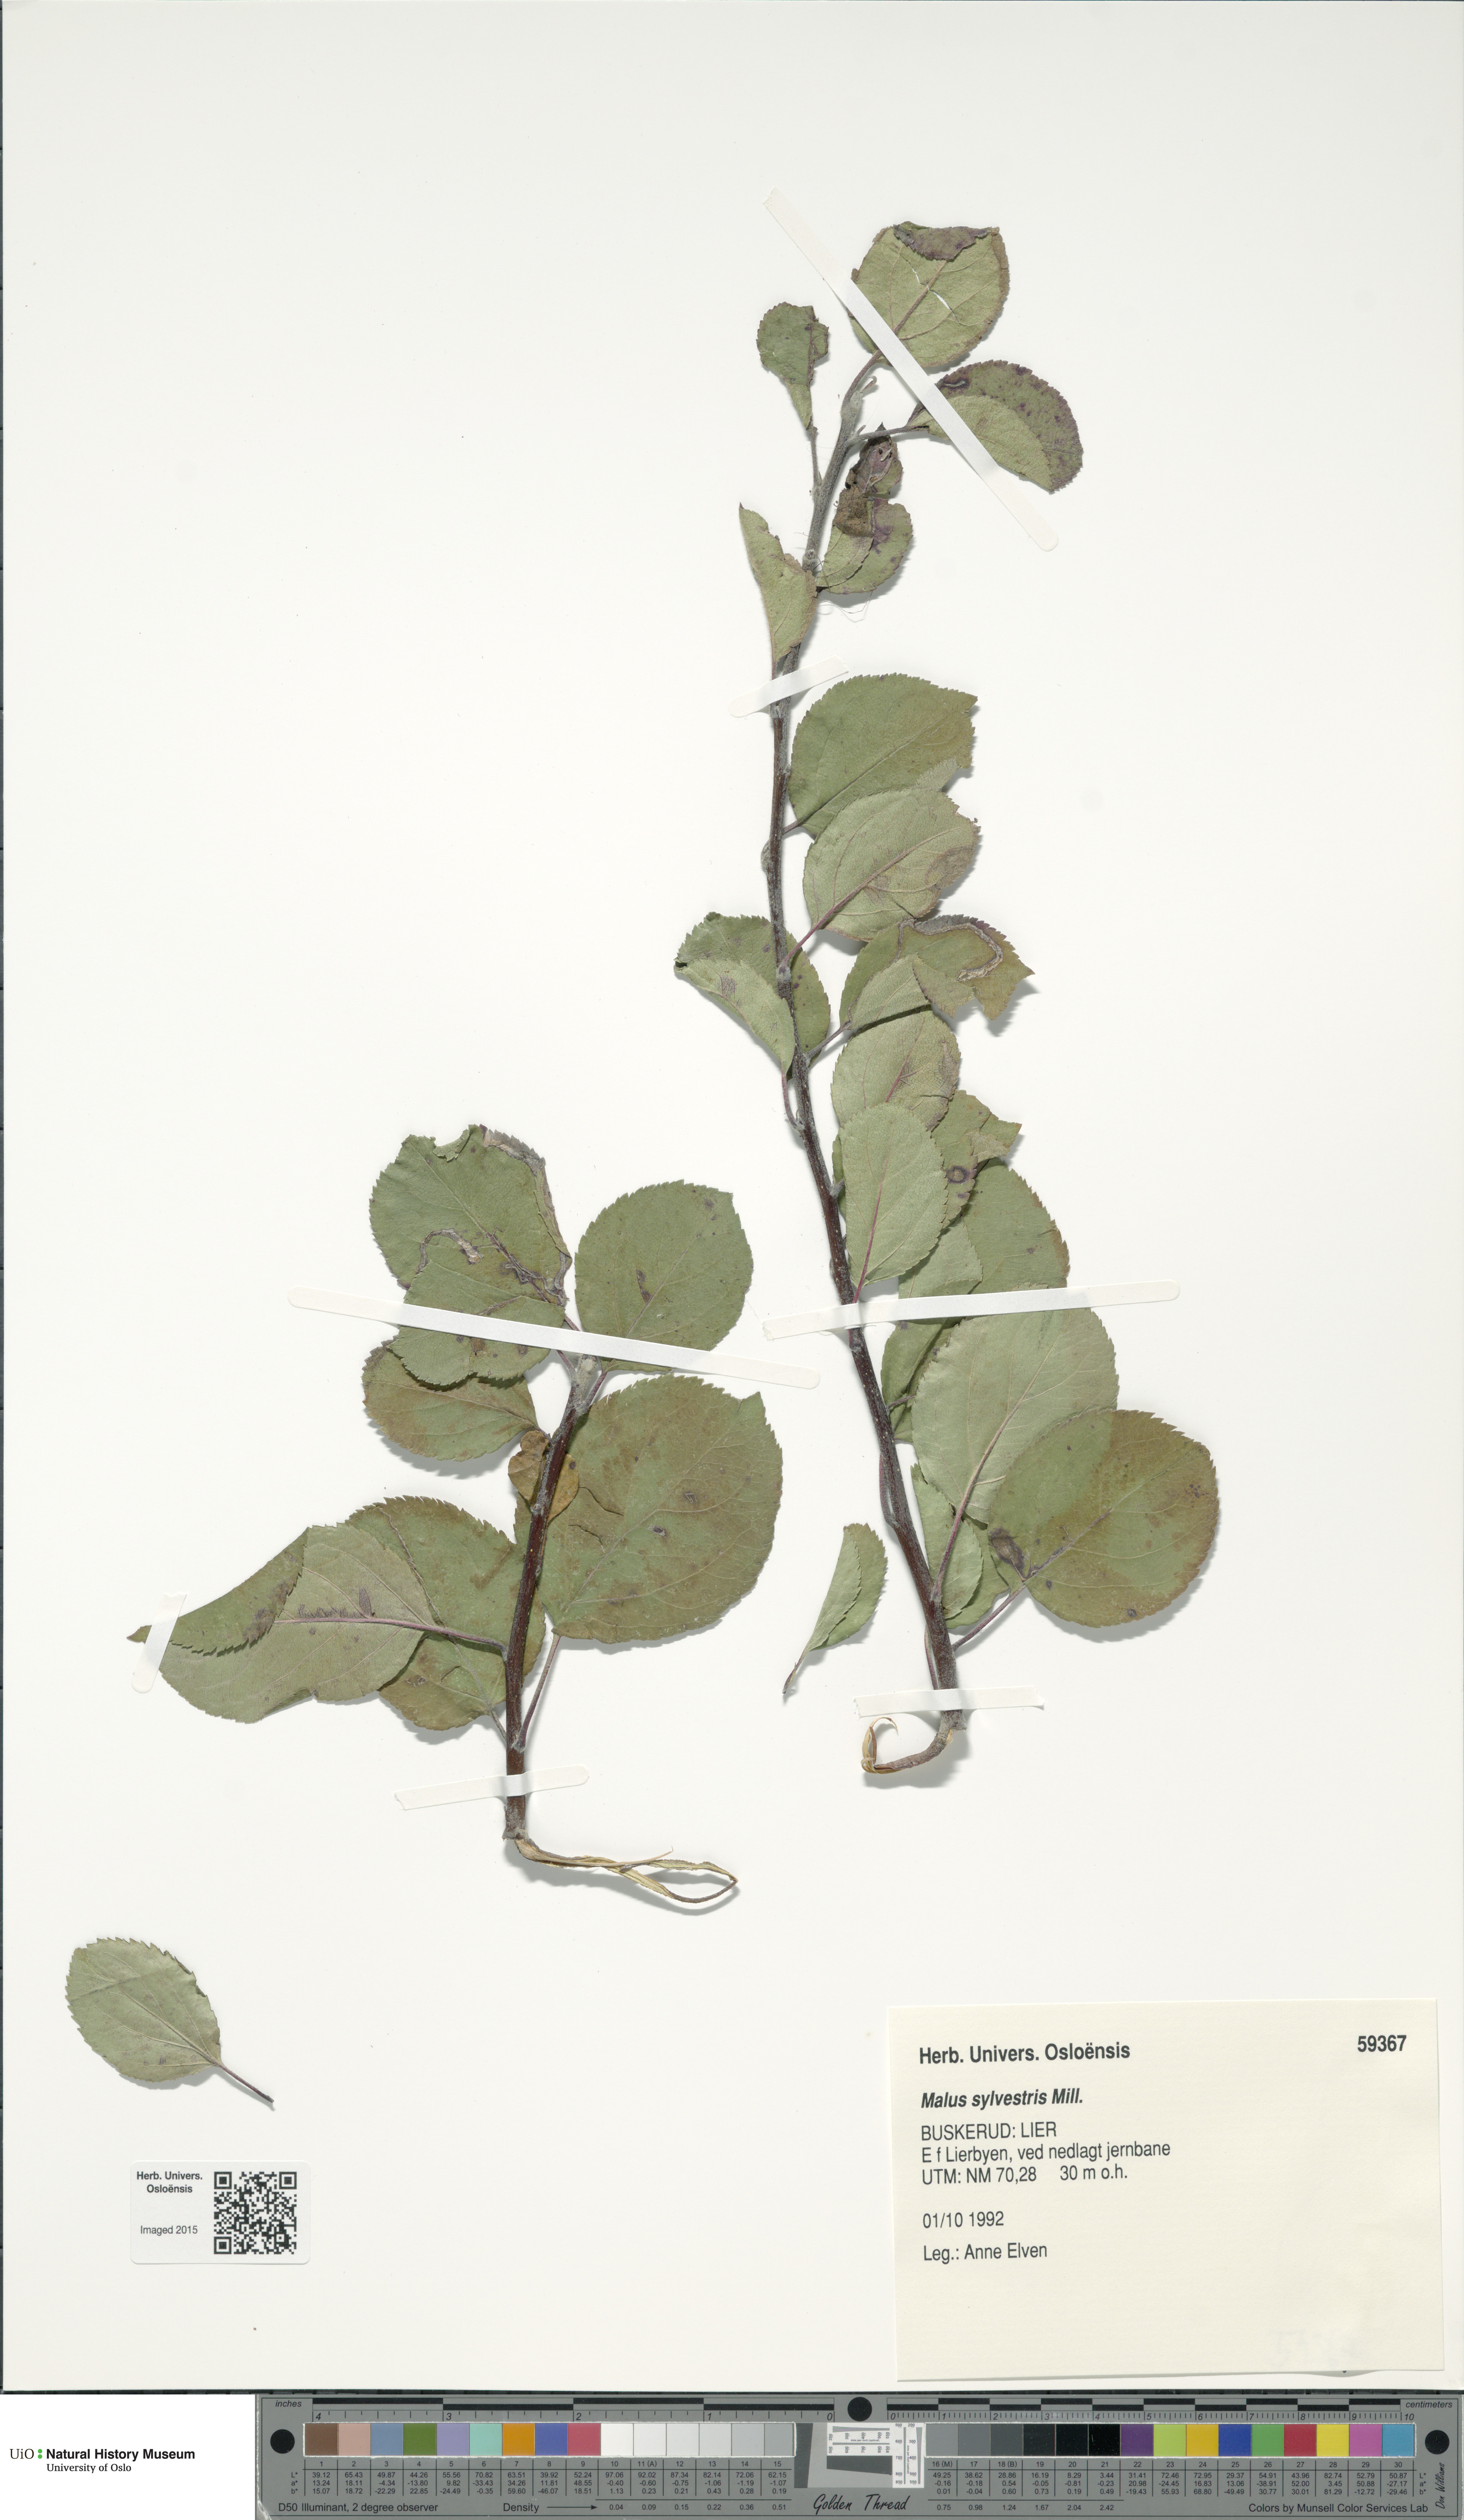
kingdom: Plantae
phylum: Tracheophyta
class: Magnoliopsida
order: Rosales
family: Rosaceae
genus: Malus
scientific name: Malus sylvestris
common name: Crab apple
